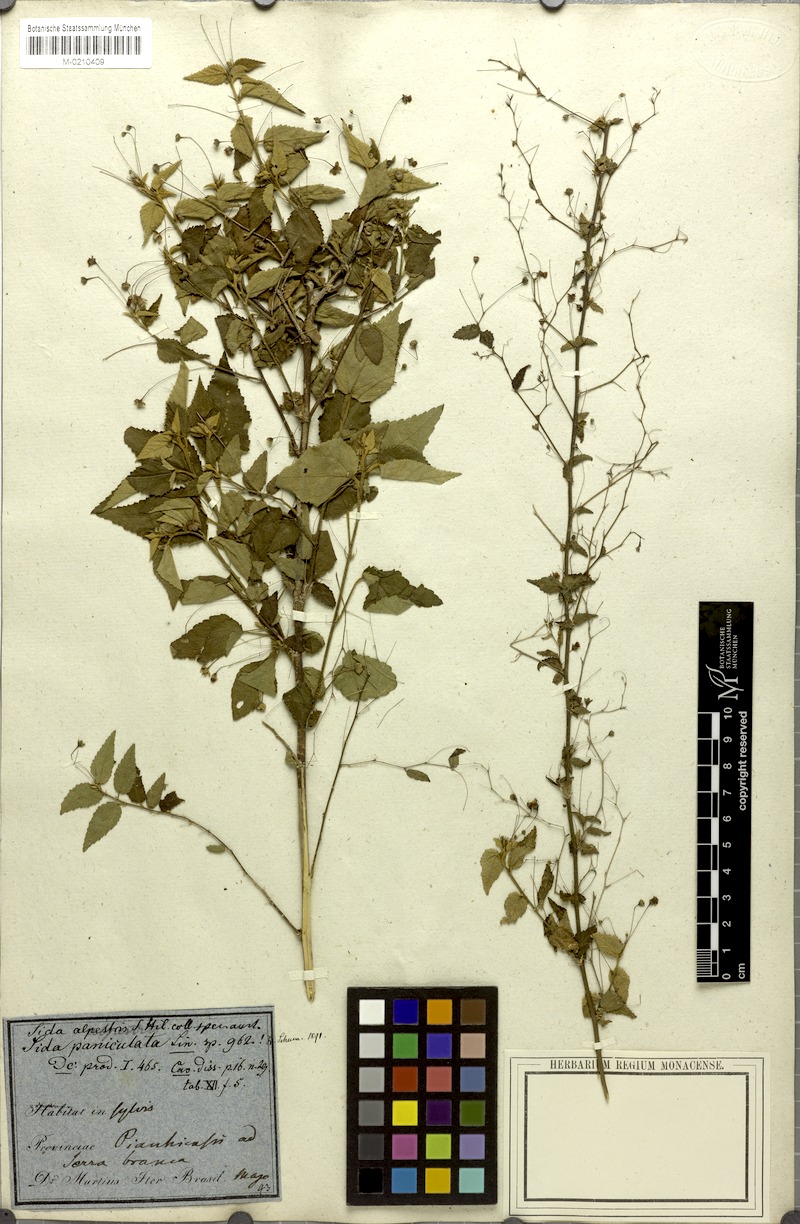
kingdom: Plantae
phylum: Tracheophyta
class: Magnoliopsida
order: Malvales
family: Malvaceae
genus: Sidastrum
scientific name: Sidastrum paniculatum
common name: Panicled sandmallow
